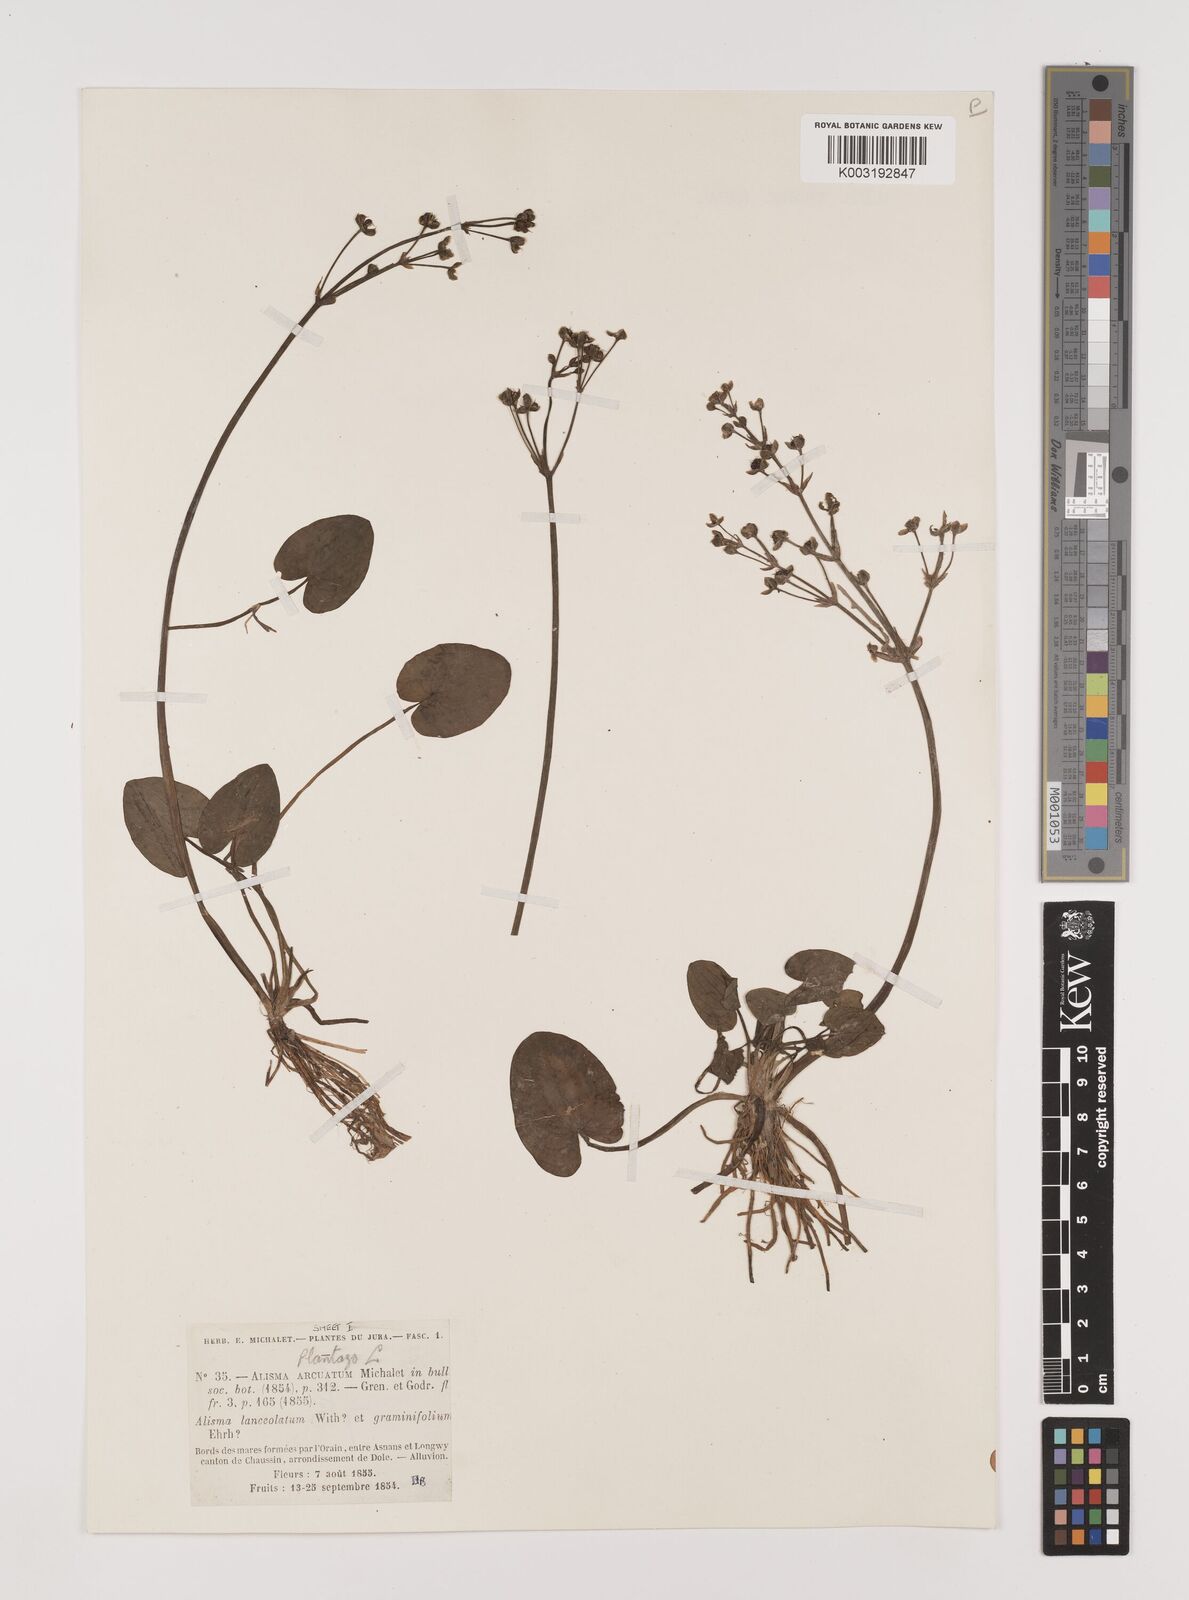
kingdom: Plantae
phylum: Tracheophyta
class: Liliopsida
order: Alismatales
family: Alismataceae
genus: Caldesia
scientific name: Caldesia parnassifolia
